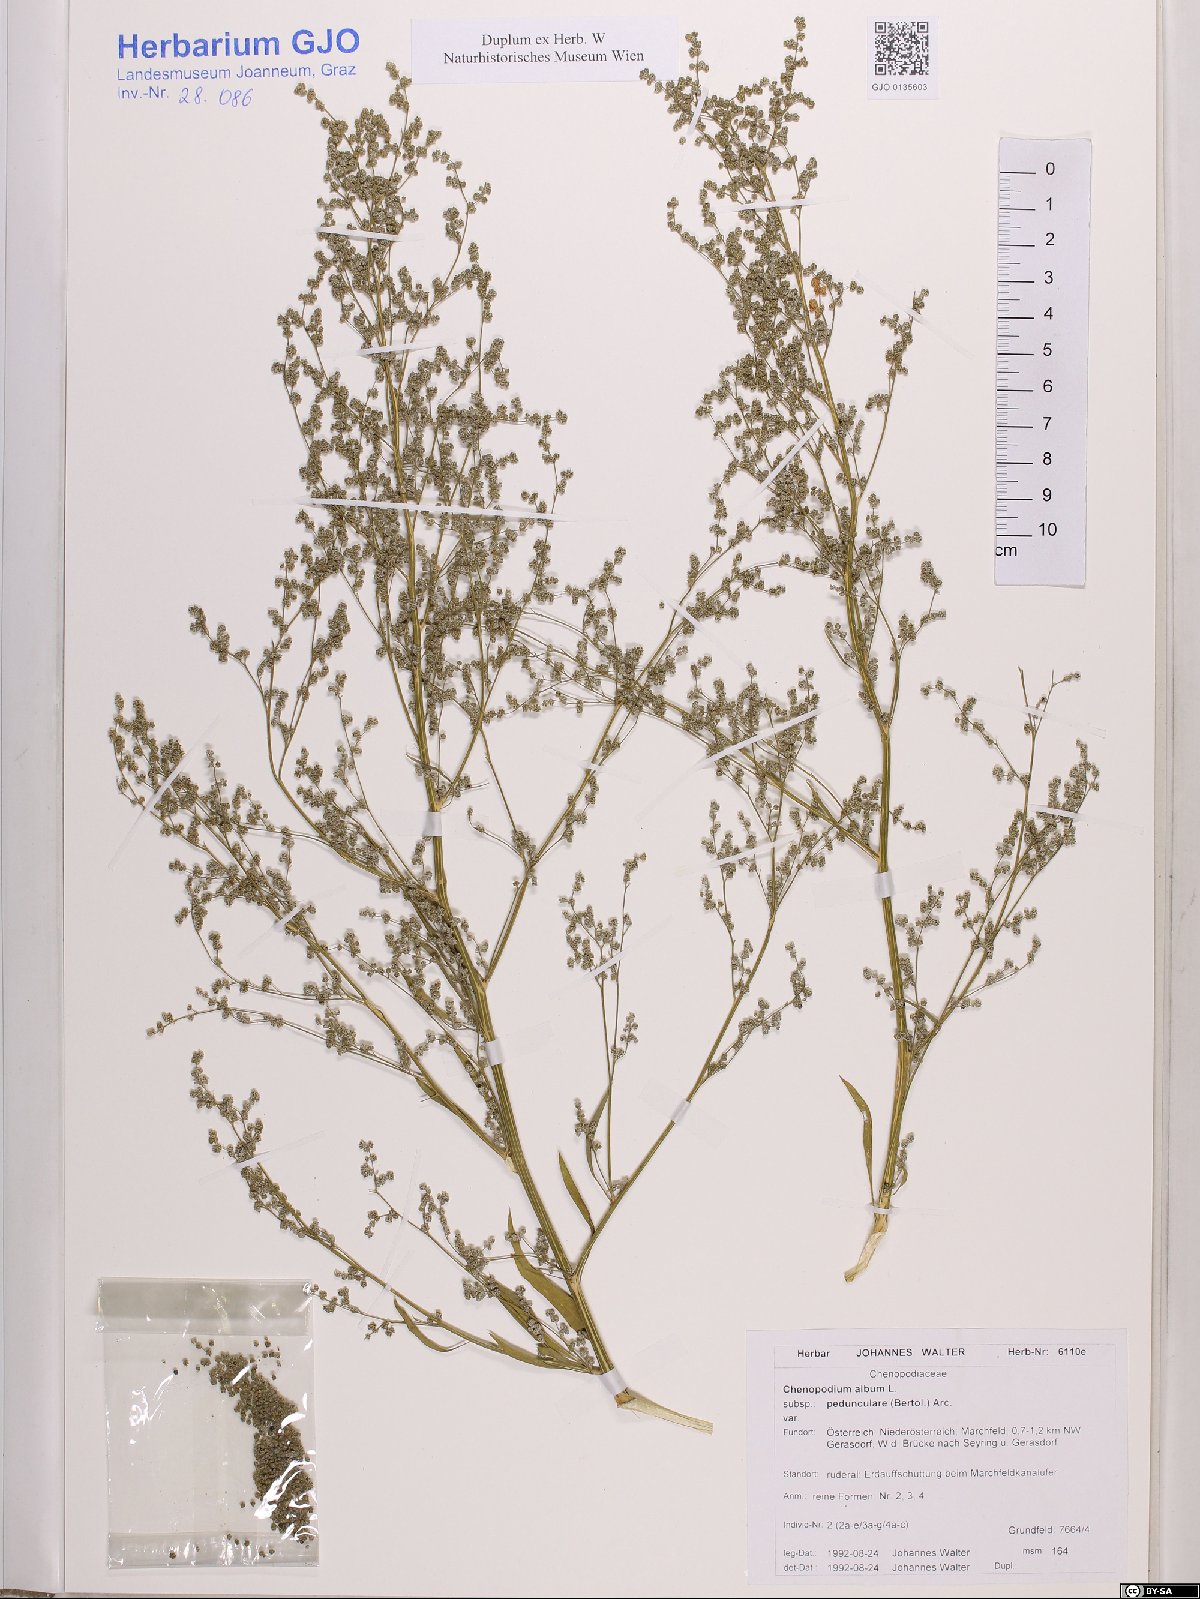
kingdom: Plantae
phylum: Tracheophyta
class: Magnoliopsida
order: Caryophyllales
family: Amaranthaceae
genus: Chenopodium
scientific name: Chenopodium album
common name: Fat-hen
